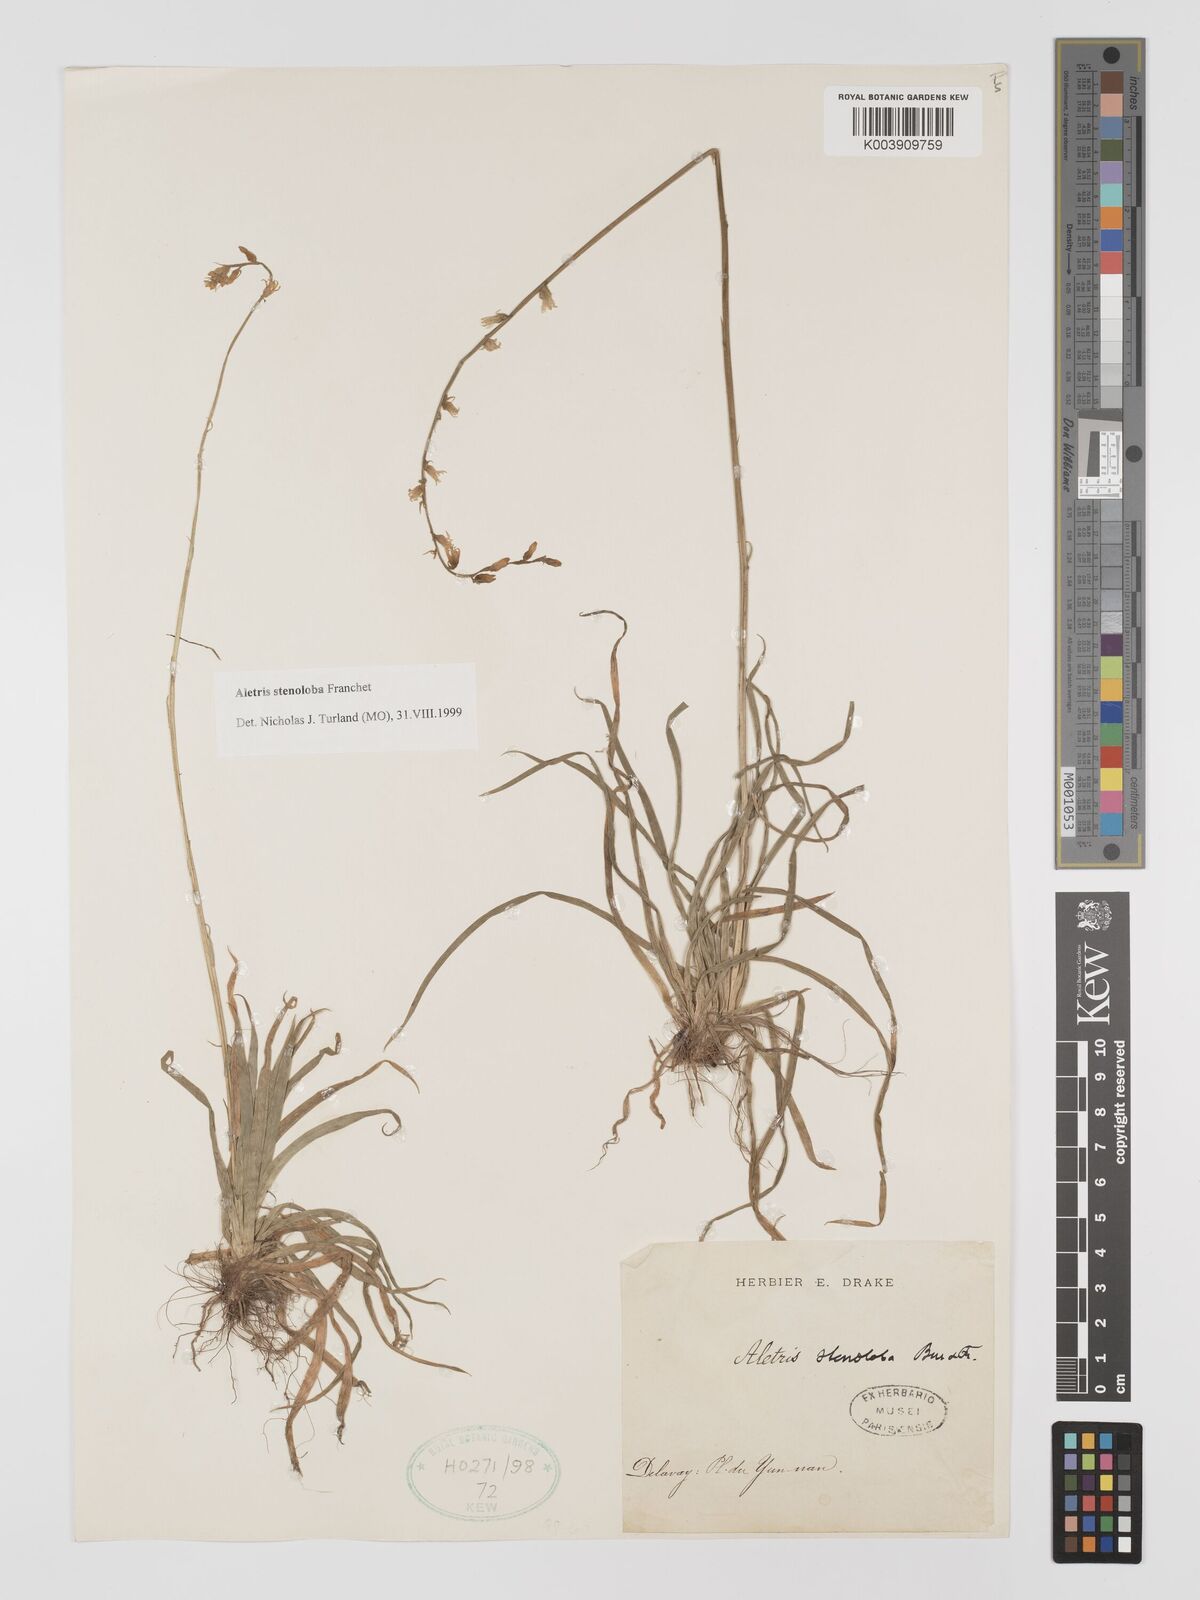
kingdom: Plantae
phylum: Tracheophyta
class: Liliopsida
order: Dioscoreales
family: Nartheciaceae
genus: Aletris
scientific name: Aletris stenoloba
